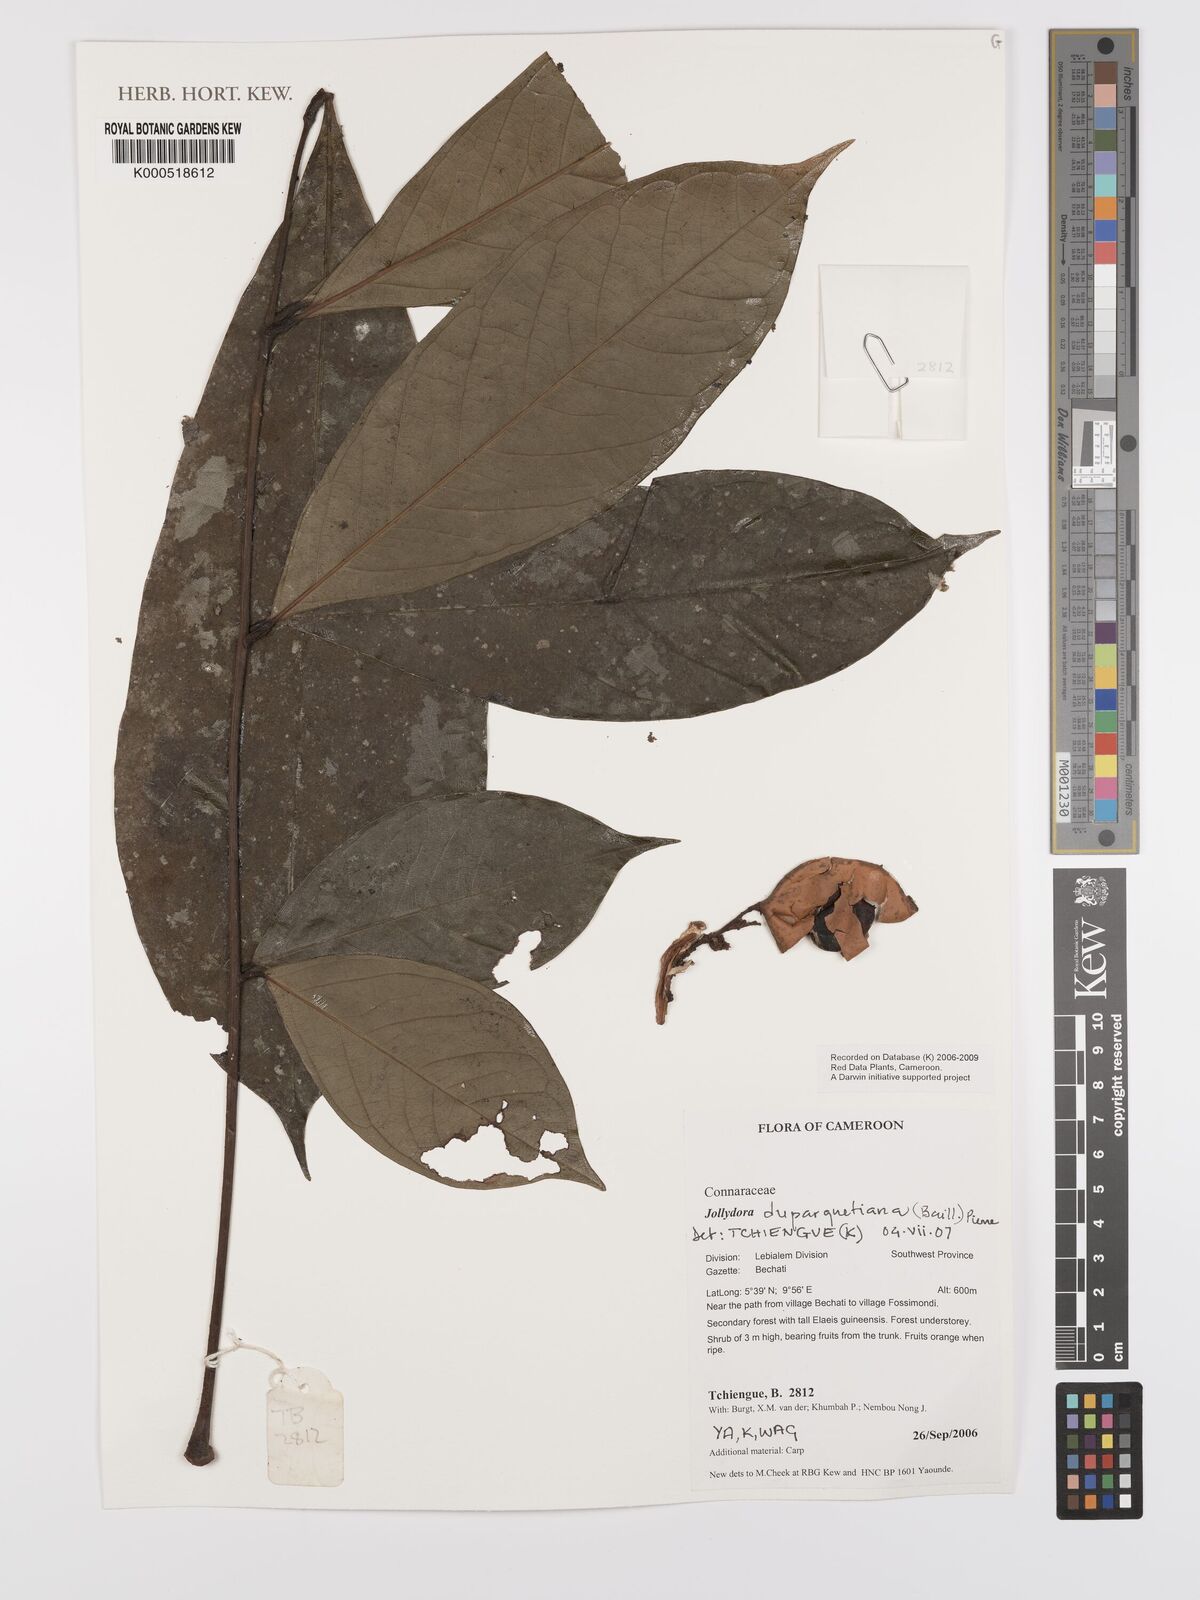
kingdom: Plantae
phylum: Tracheophyta
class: Magnoliopsida
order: Oxalidales
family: Connaraceae
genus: Jollydora
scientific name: Jollydora duparquetiana
